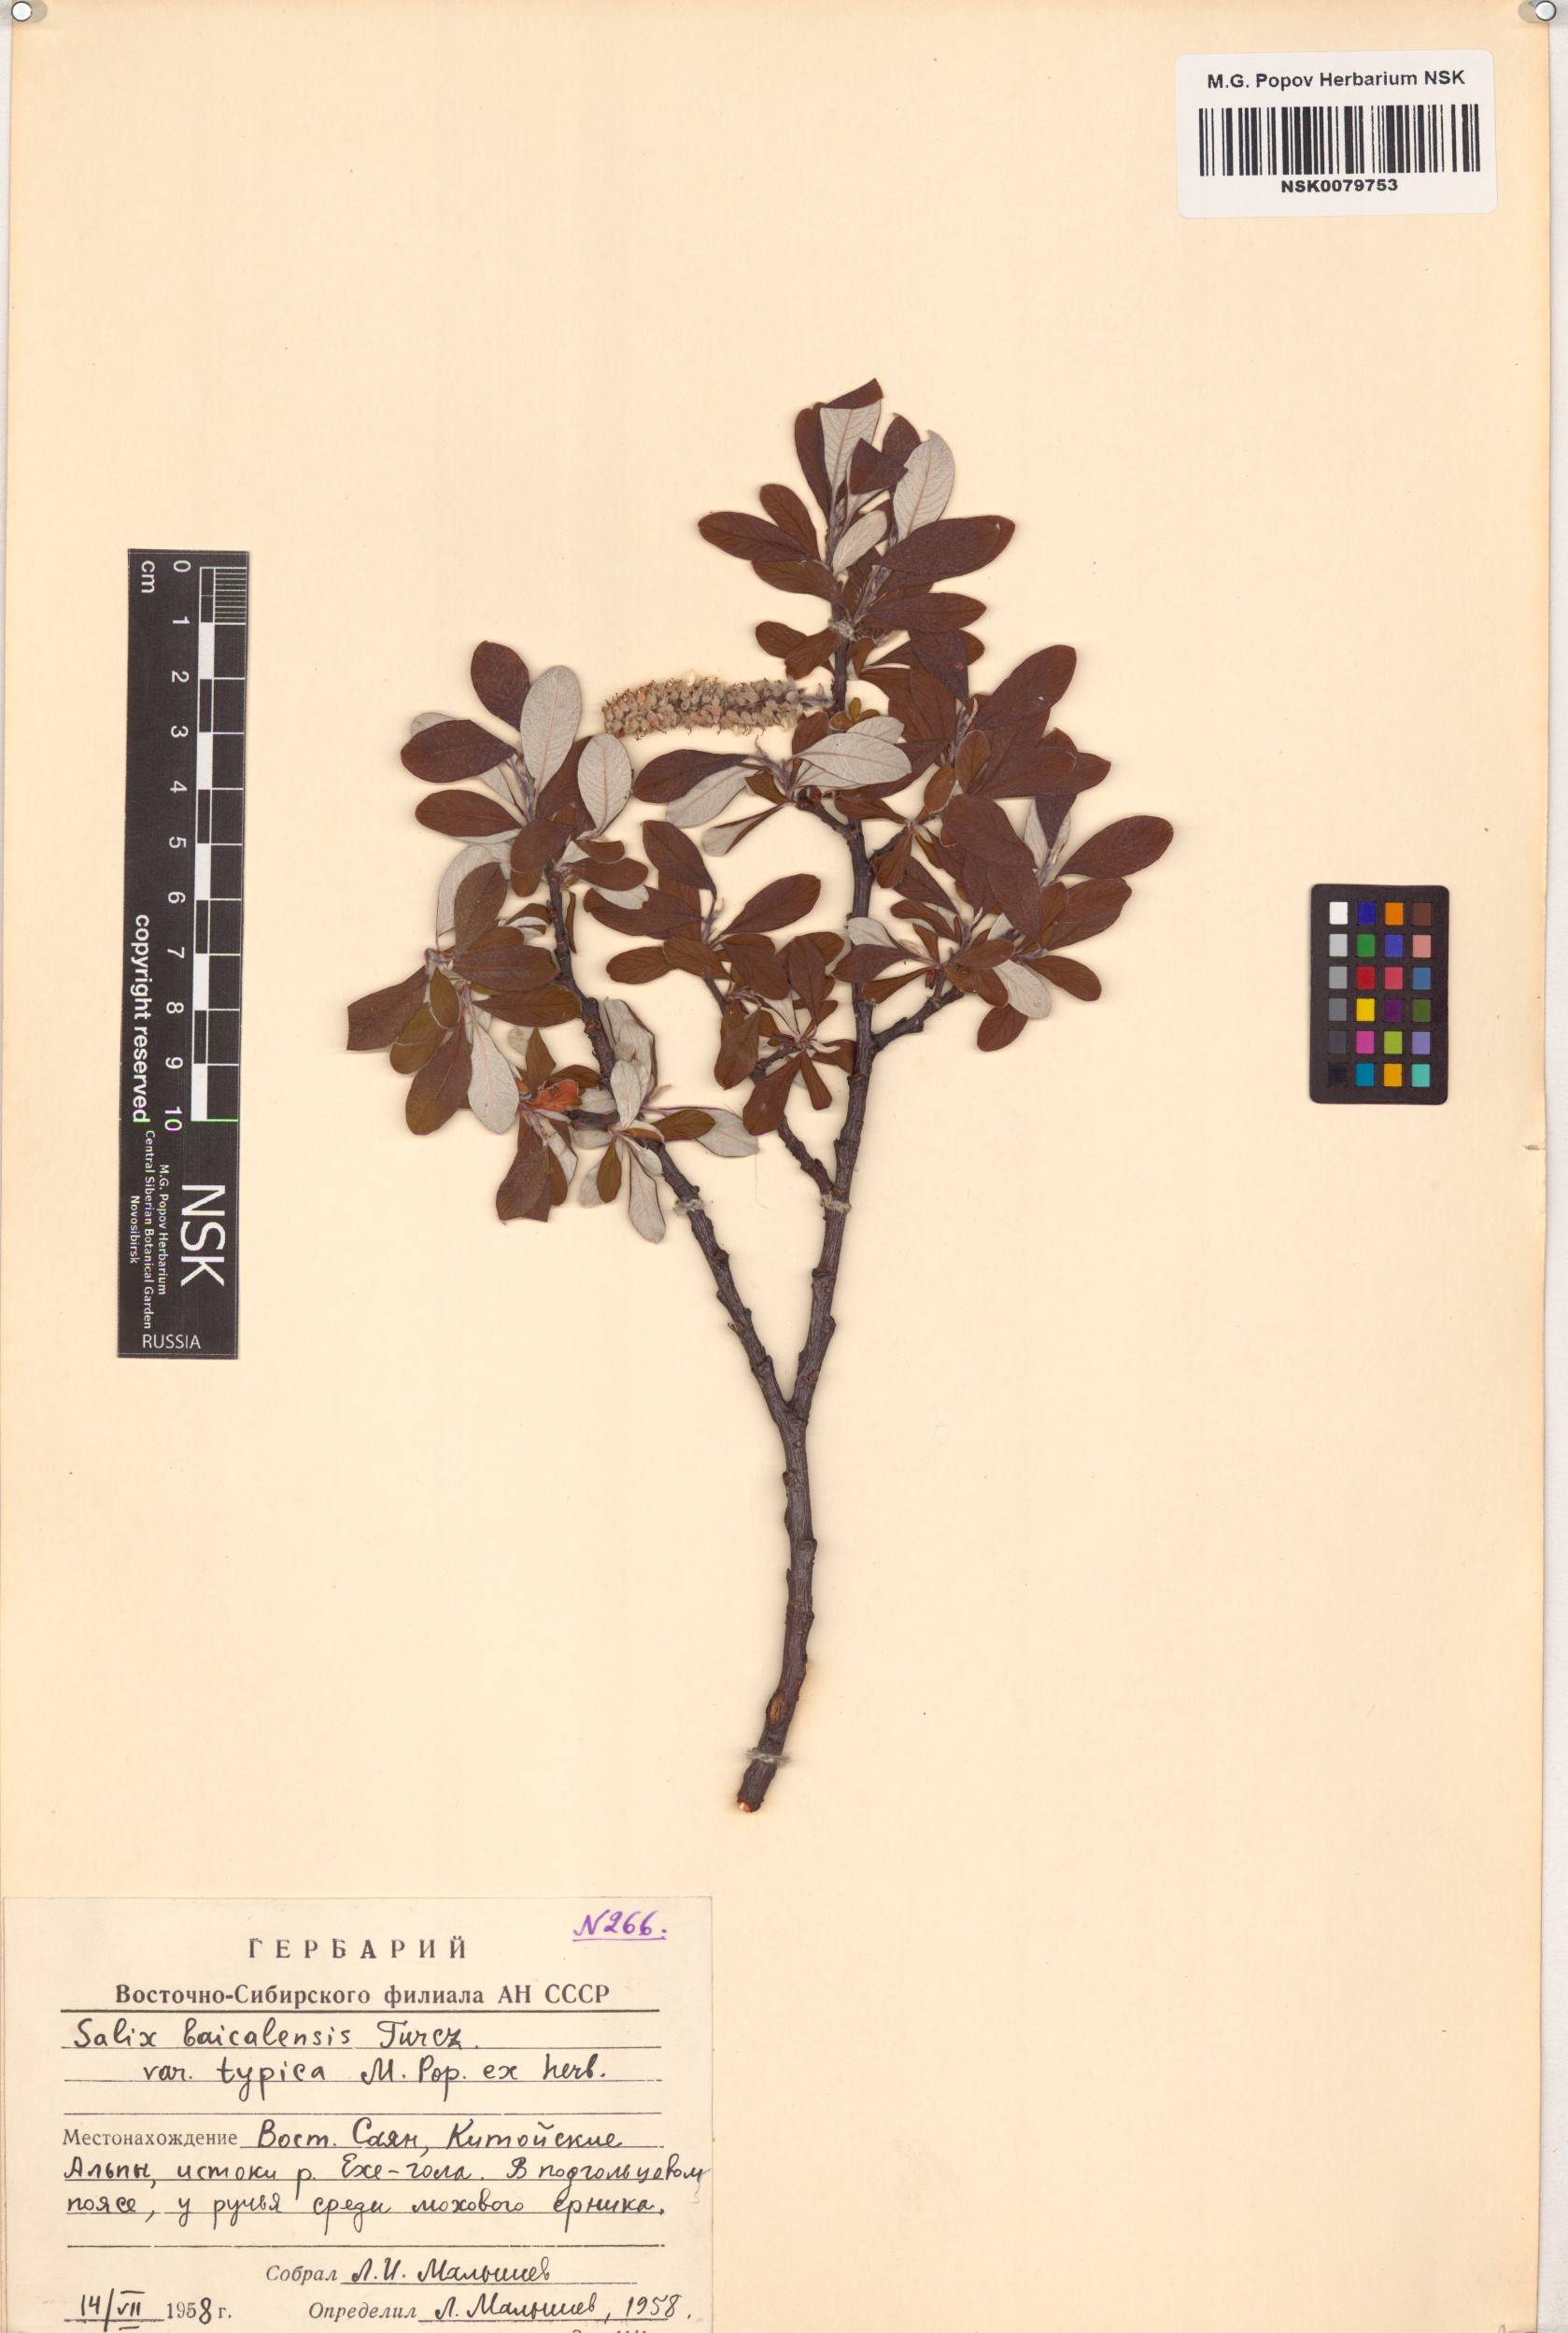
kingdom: Plantae
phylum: Tracheophyta
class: Magnoliopsida
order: Malpighiales
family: Salicaceae
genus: Salix
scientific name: Salix krylovii
